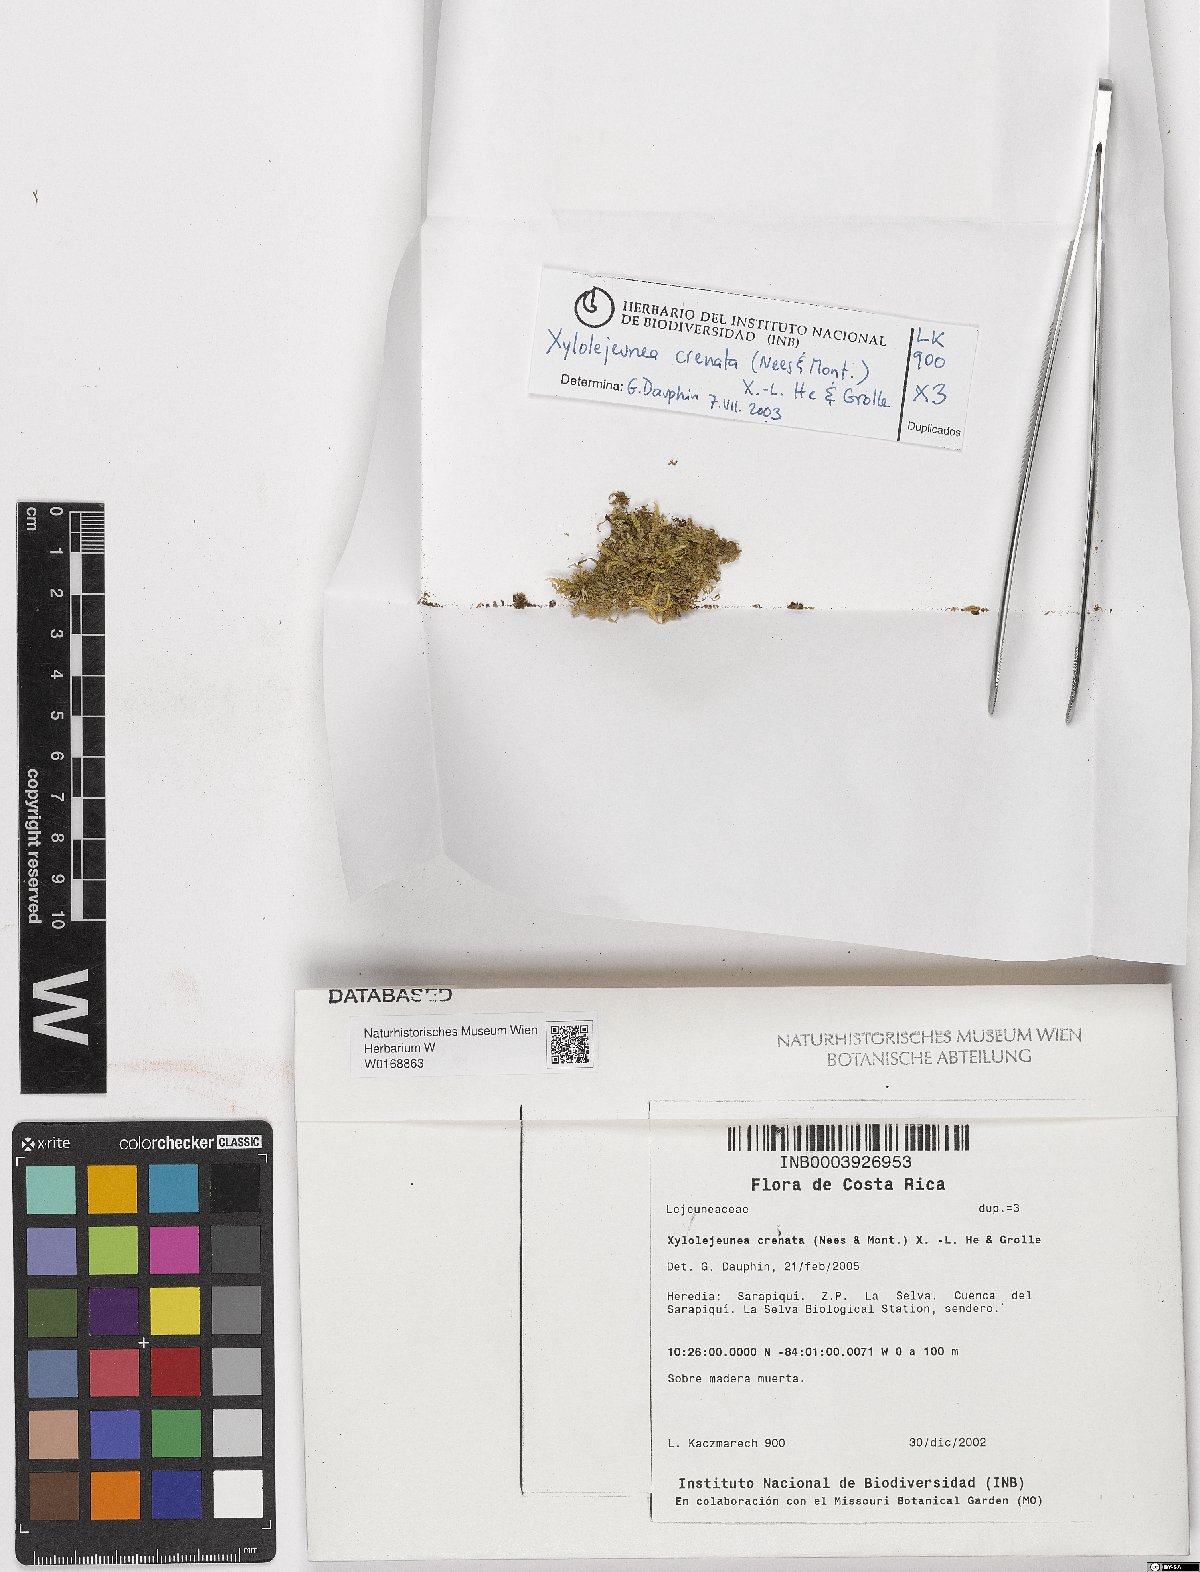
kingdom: Plantae
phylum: Marchantiophyta
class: Jungermanniopsida
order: Porellales
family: Lejeuneaceae
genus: Xylolejeunea
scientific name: Xylolejeunea crenata
